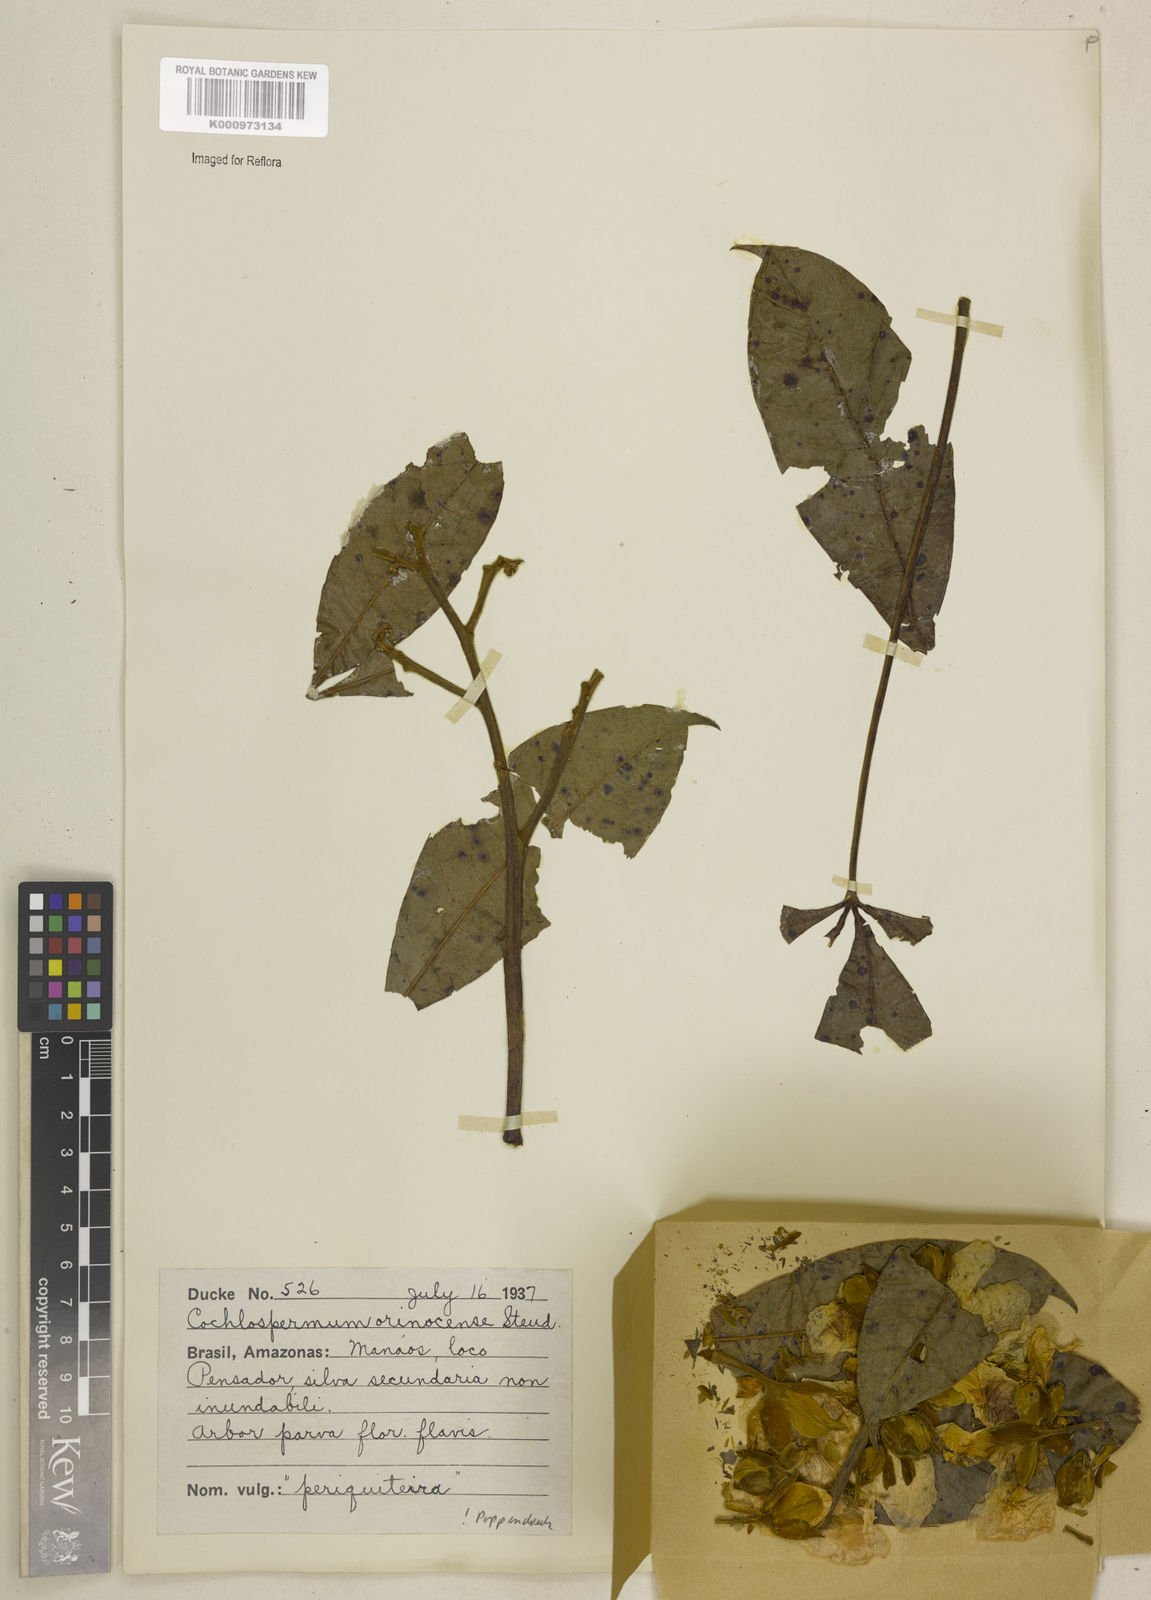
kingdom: Plantae
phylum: Tracheophyta
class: Magnoliopsida
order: Malvales
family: Cochlospermaceae
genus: Cochlospermum
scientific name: Cochlospermum orinocense
